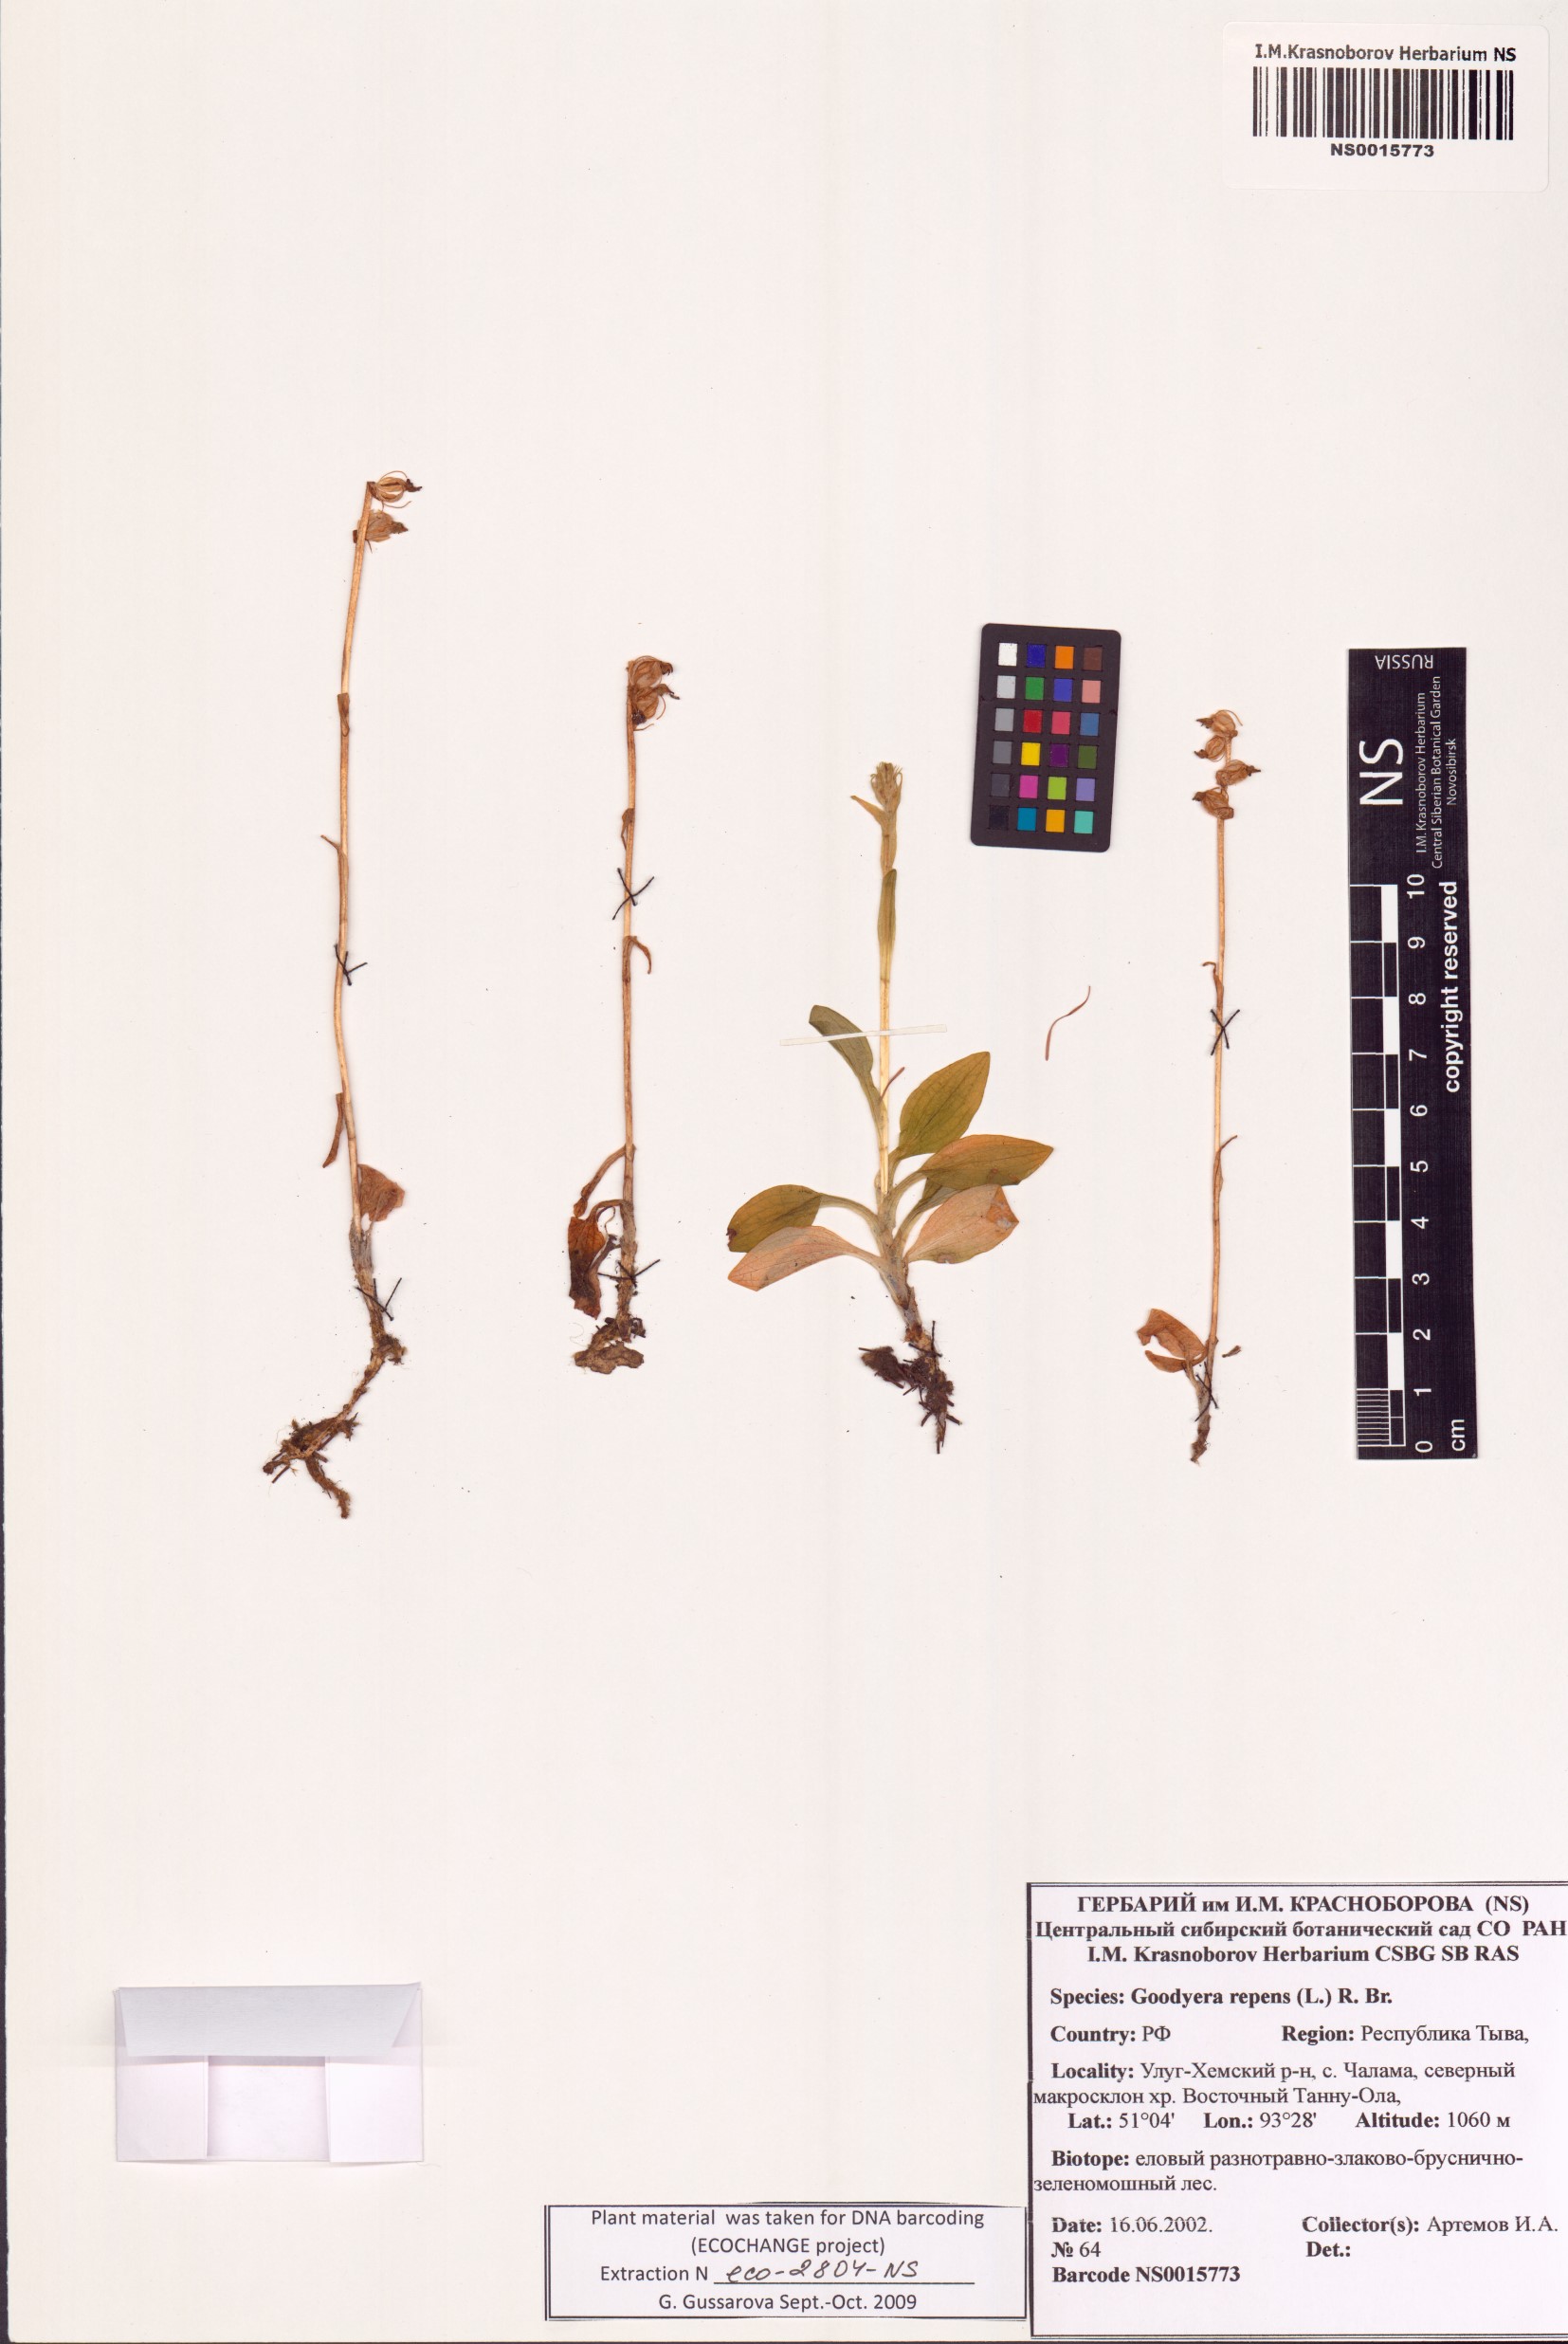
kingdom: Plantae
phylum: Tracheophyta
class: Liliopsida
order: Asparagales
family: Orchidaceae
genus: Goodyera
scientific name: Goodyera repens
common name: Creeping lady's-tresses
